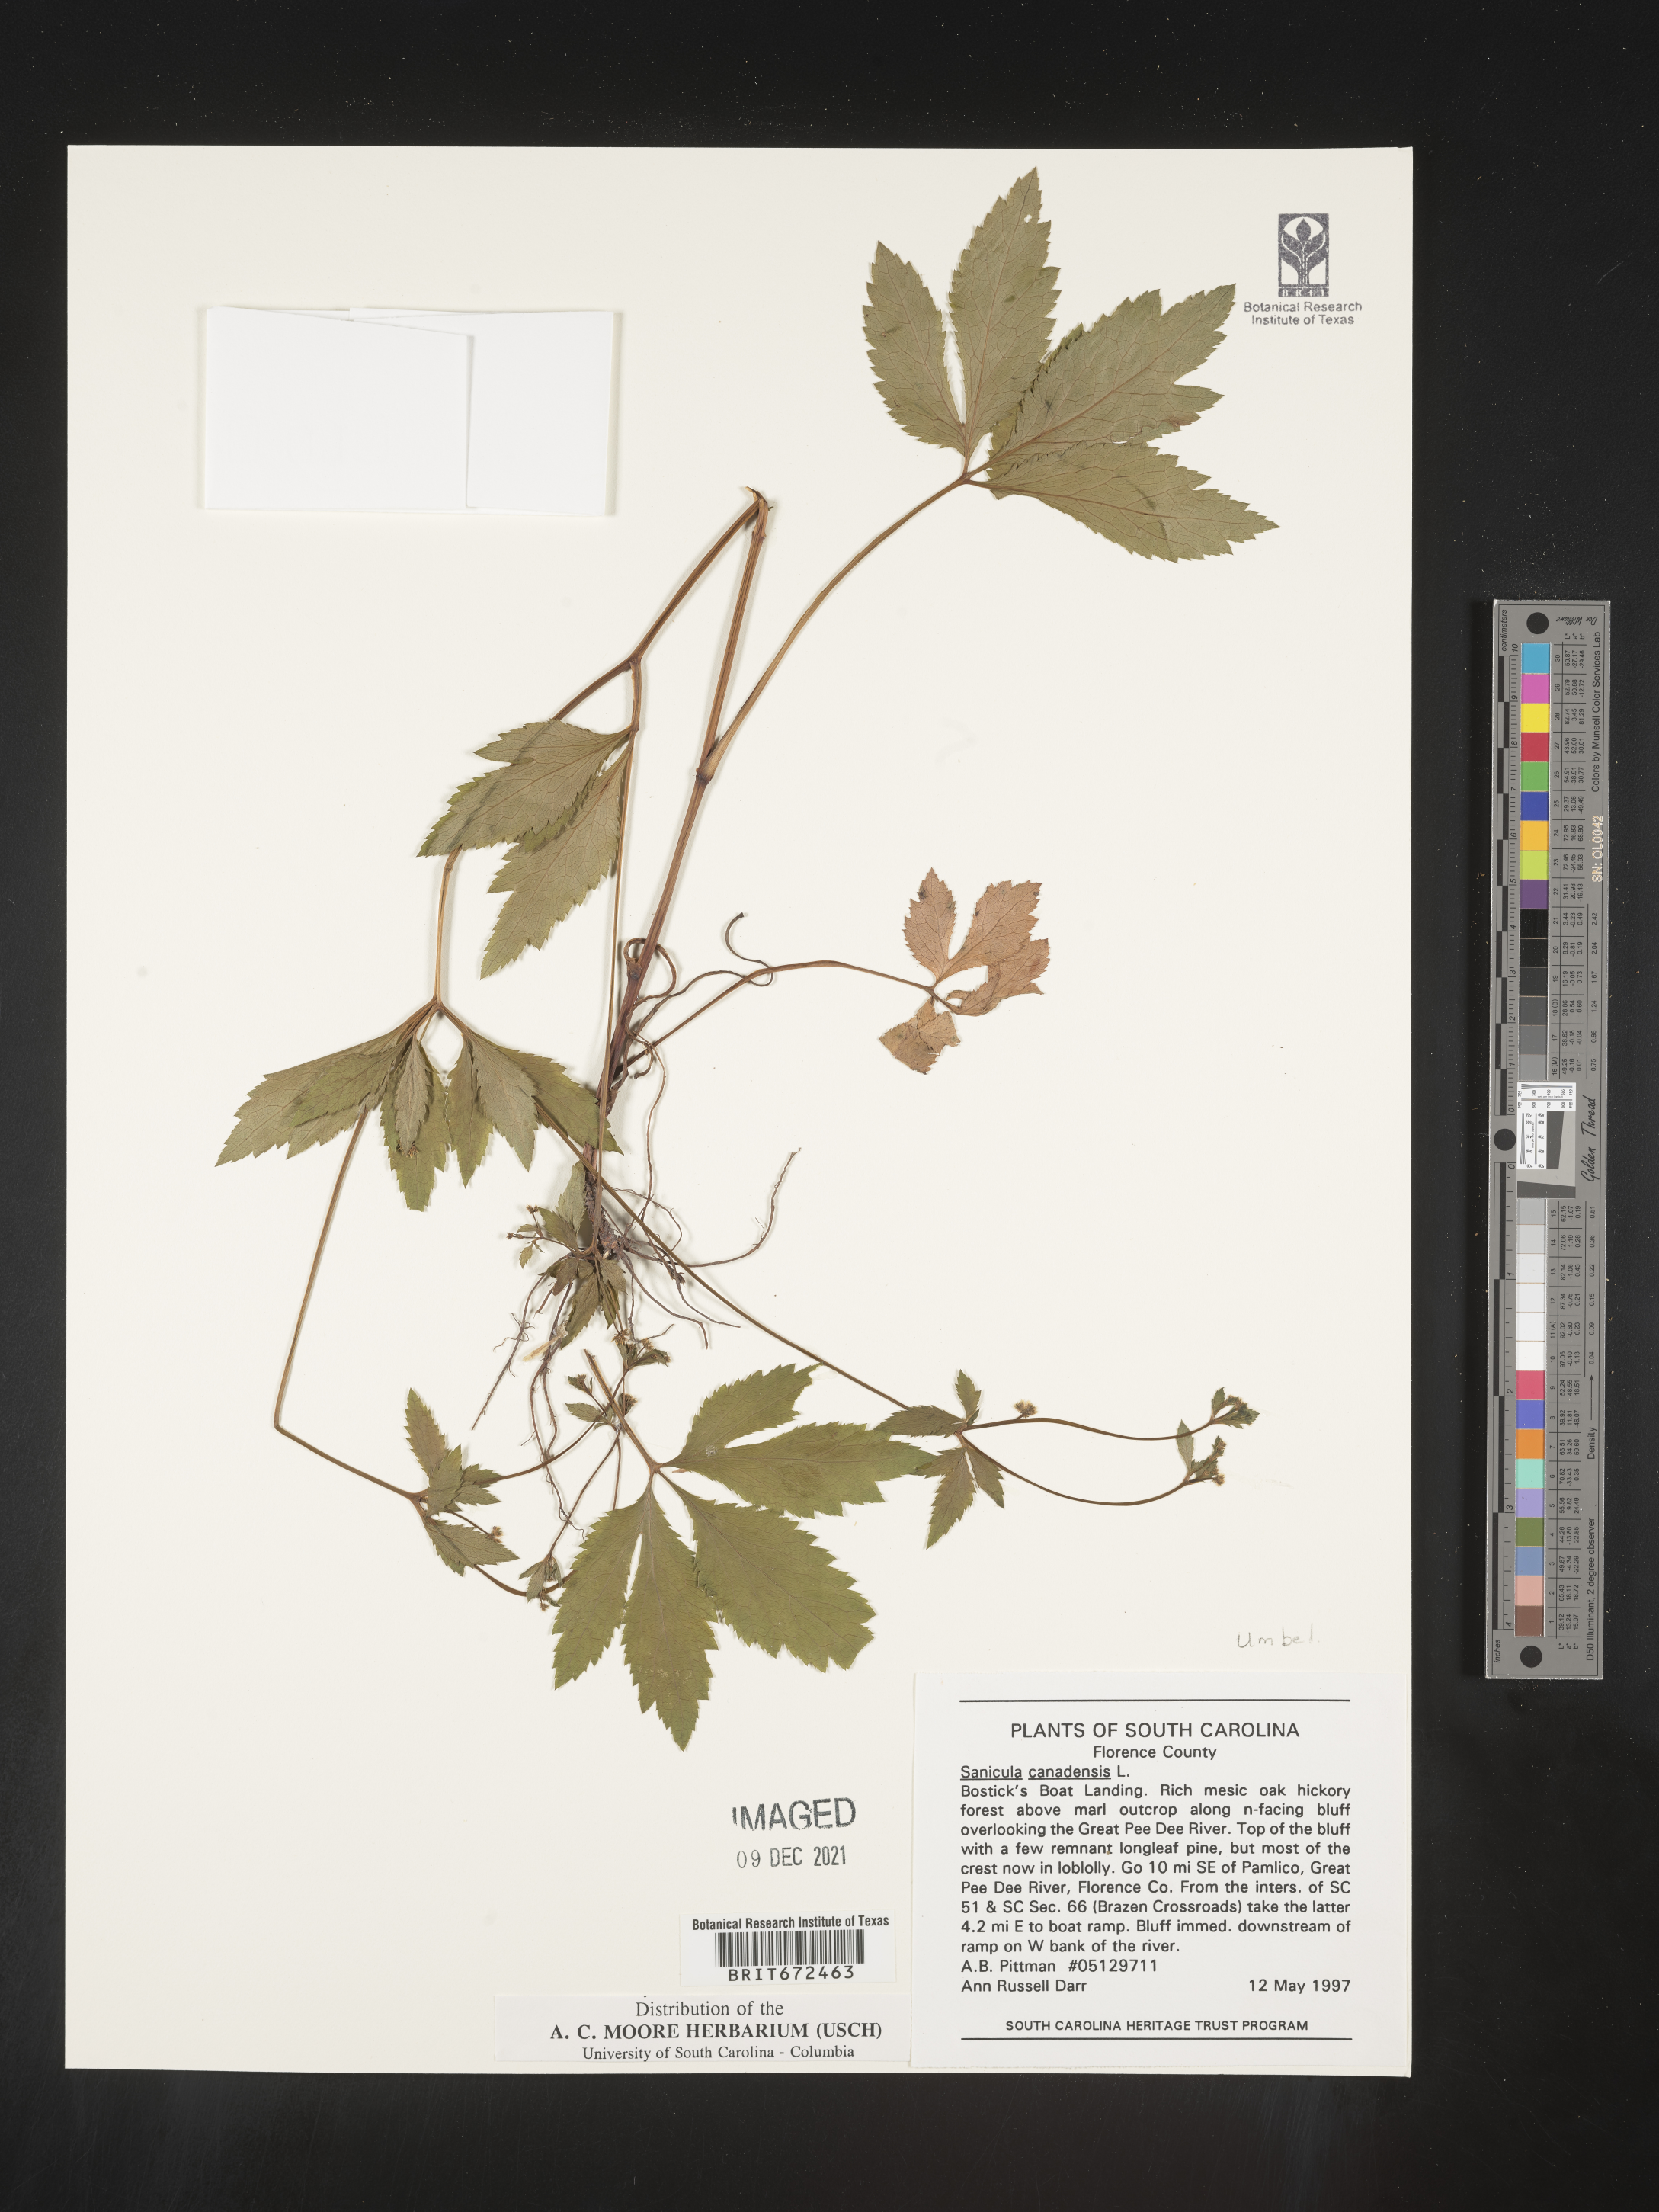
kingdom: Plantae
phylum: Tracheophyta
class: Magnoliopsida
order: Apiales
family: Apiaceae
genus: Sanicula
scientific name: Sanicula canadensis
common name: Canada sanicle
